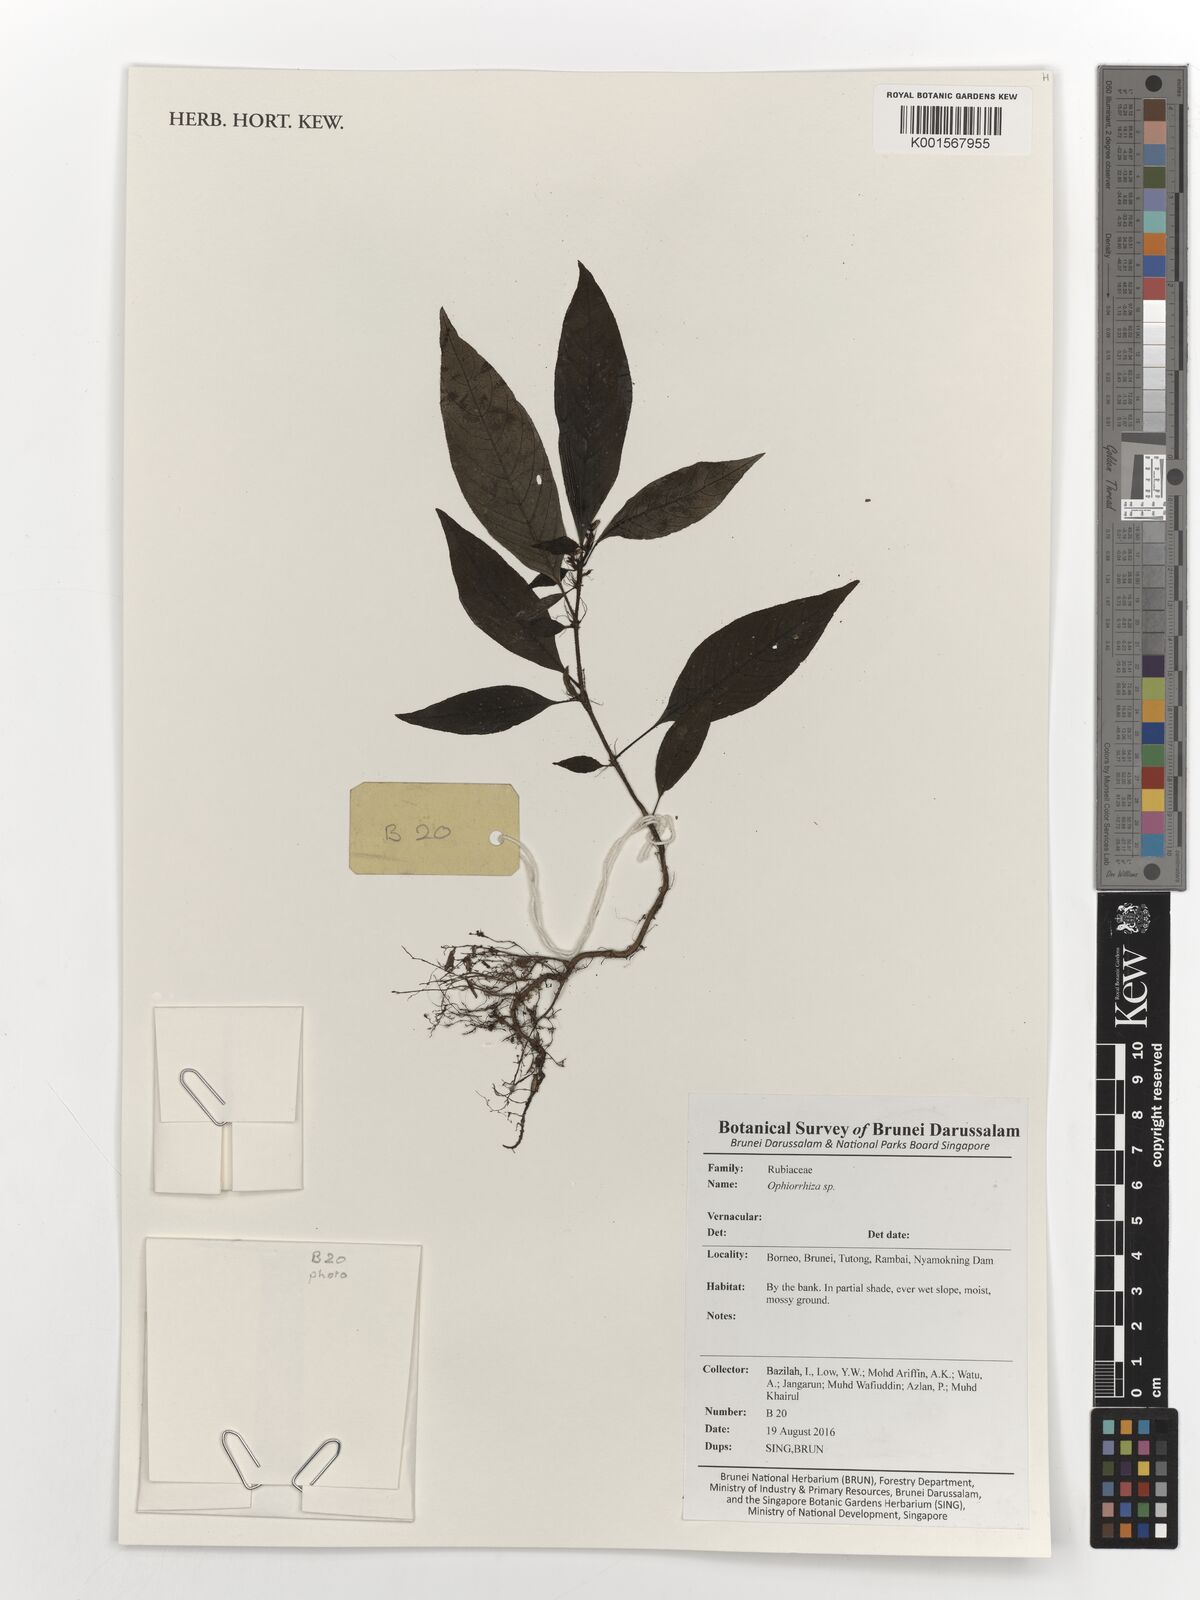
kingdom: Plantae
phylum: Tracheophyta
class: Magnoliopsida
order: Gentianales
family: Rubiaceae
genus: Ophiorrhiza
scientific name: Ophiorrhiza
